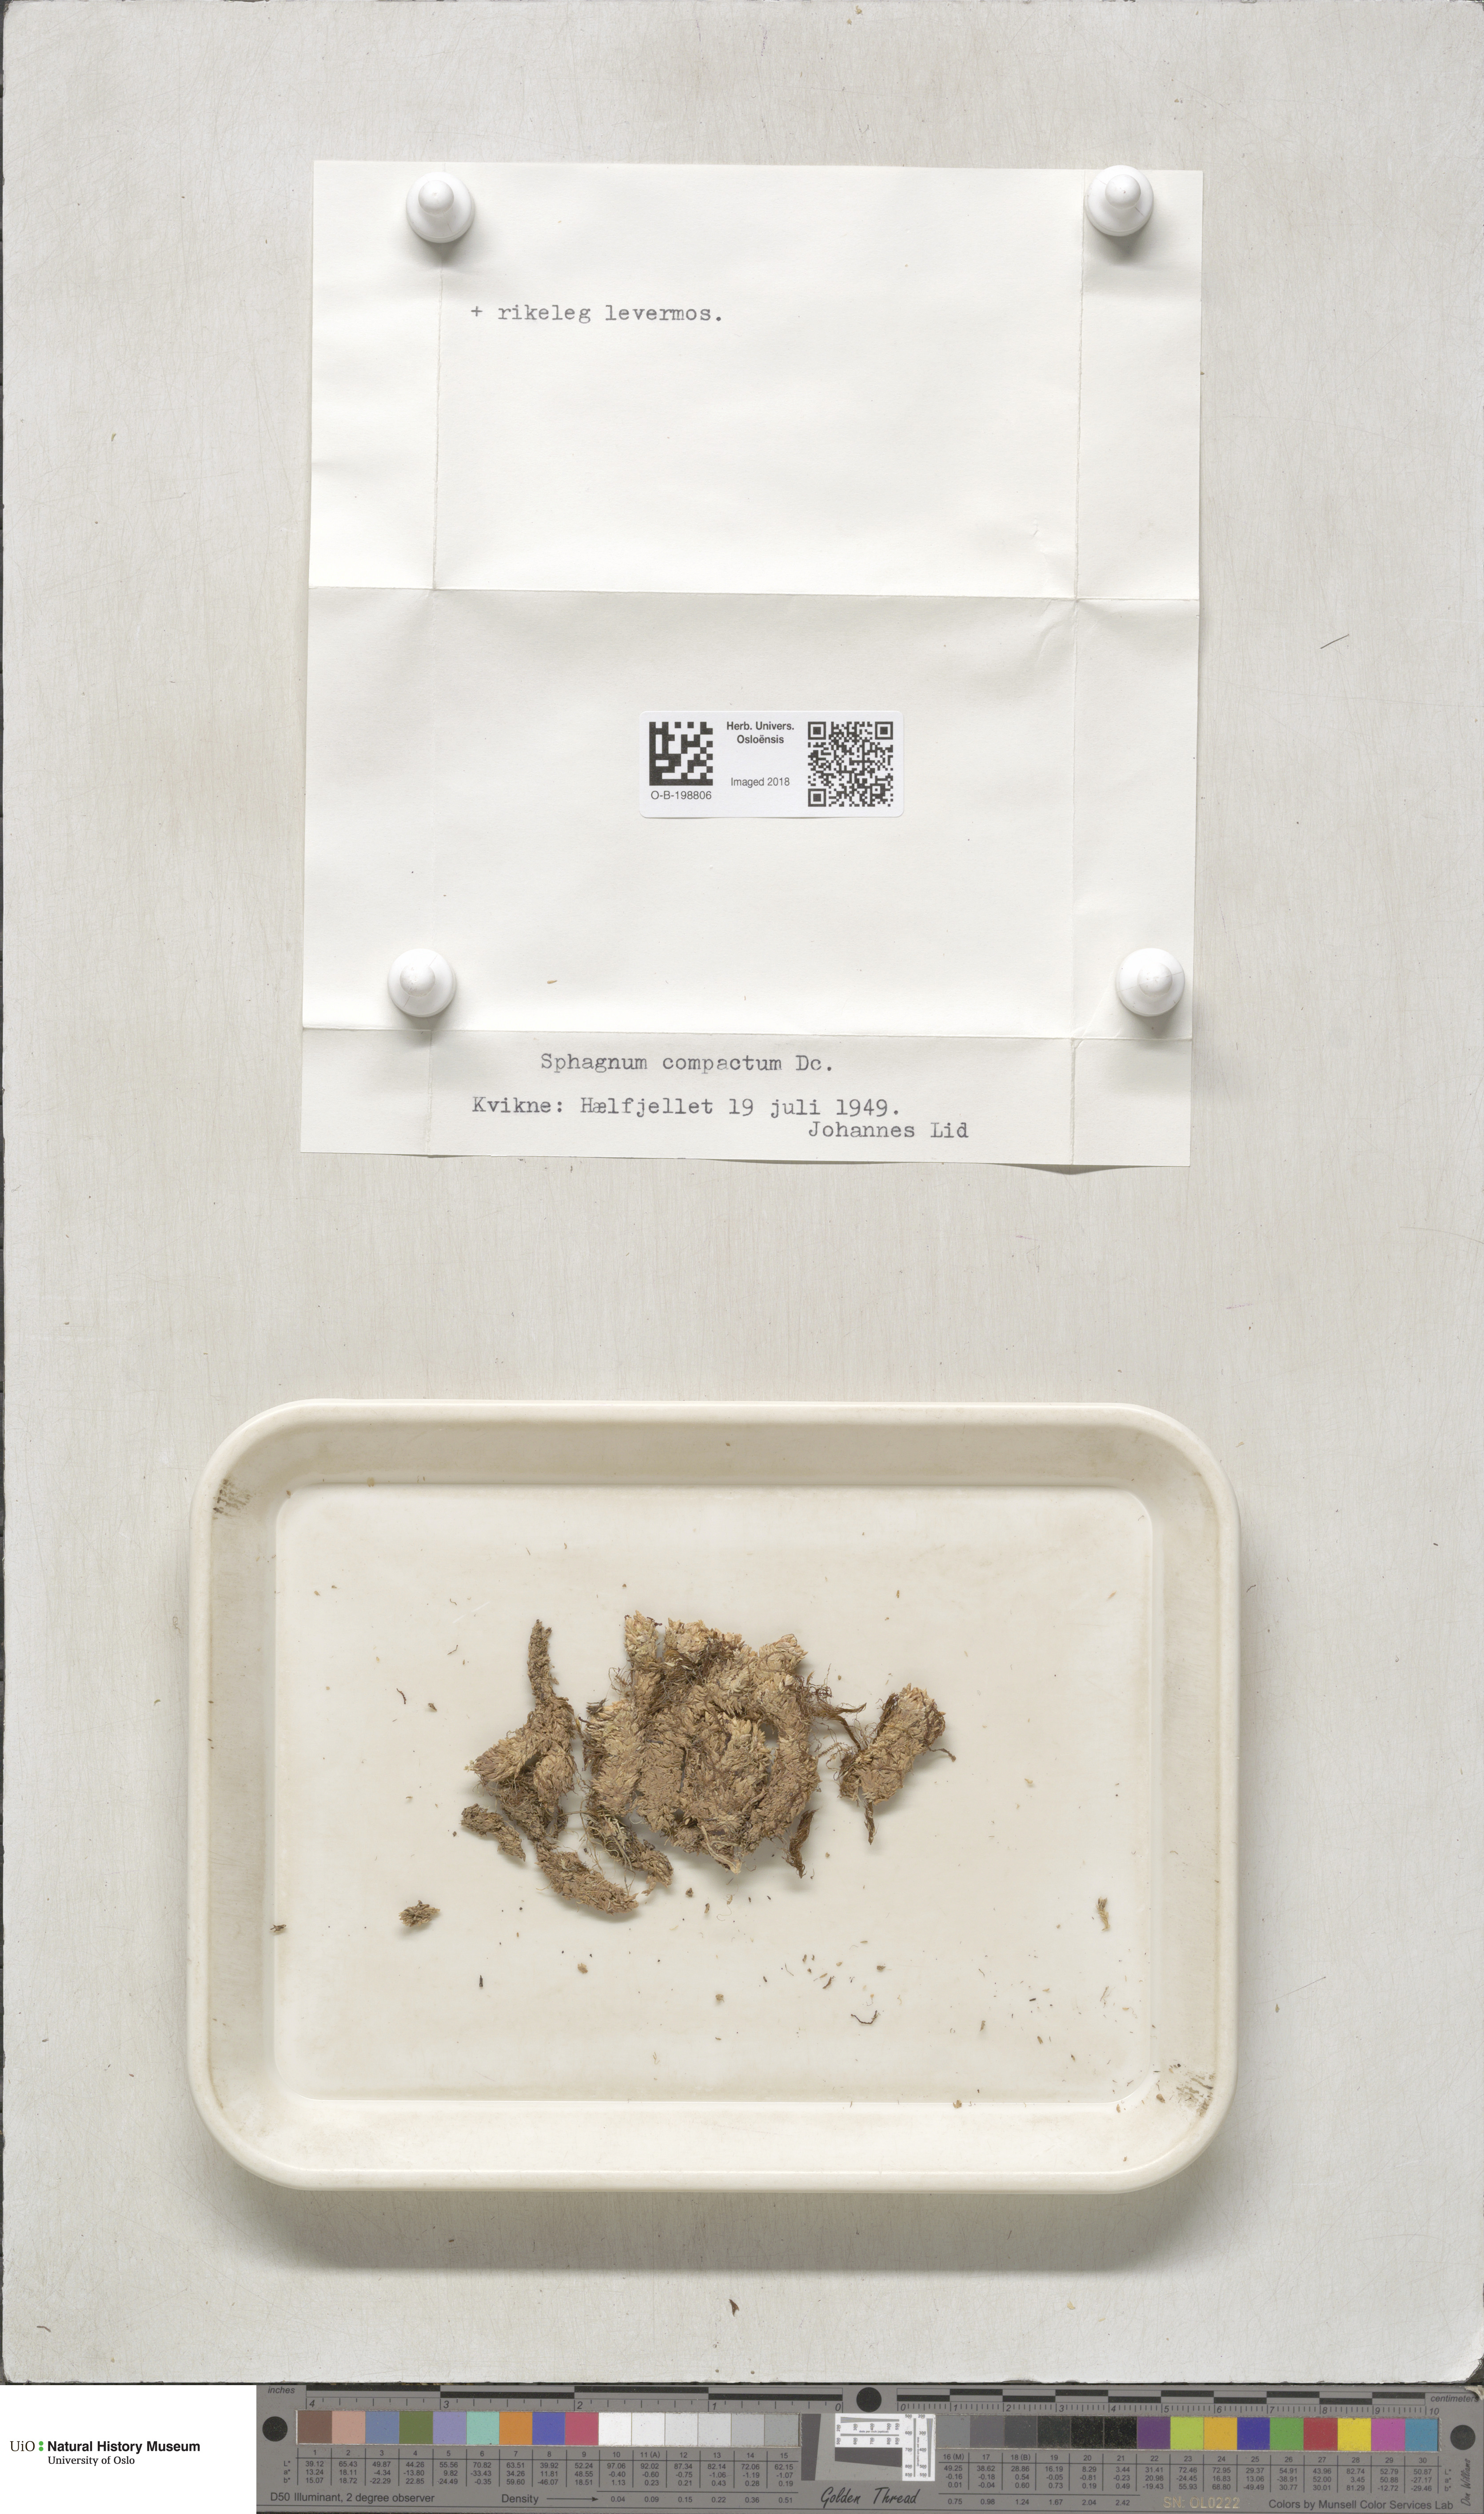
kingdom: Plantae
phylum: Bryophyta
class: Sphagnopsida
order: Sphagnales
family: Sphagnaceae
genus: Sphagnum
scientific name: Sphagnum compactum
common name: Compact peat moss
